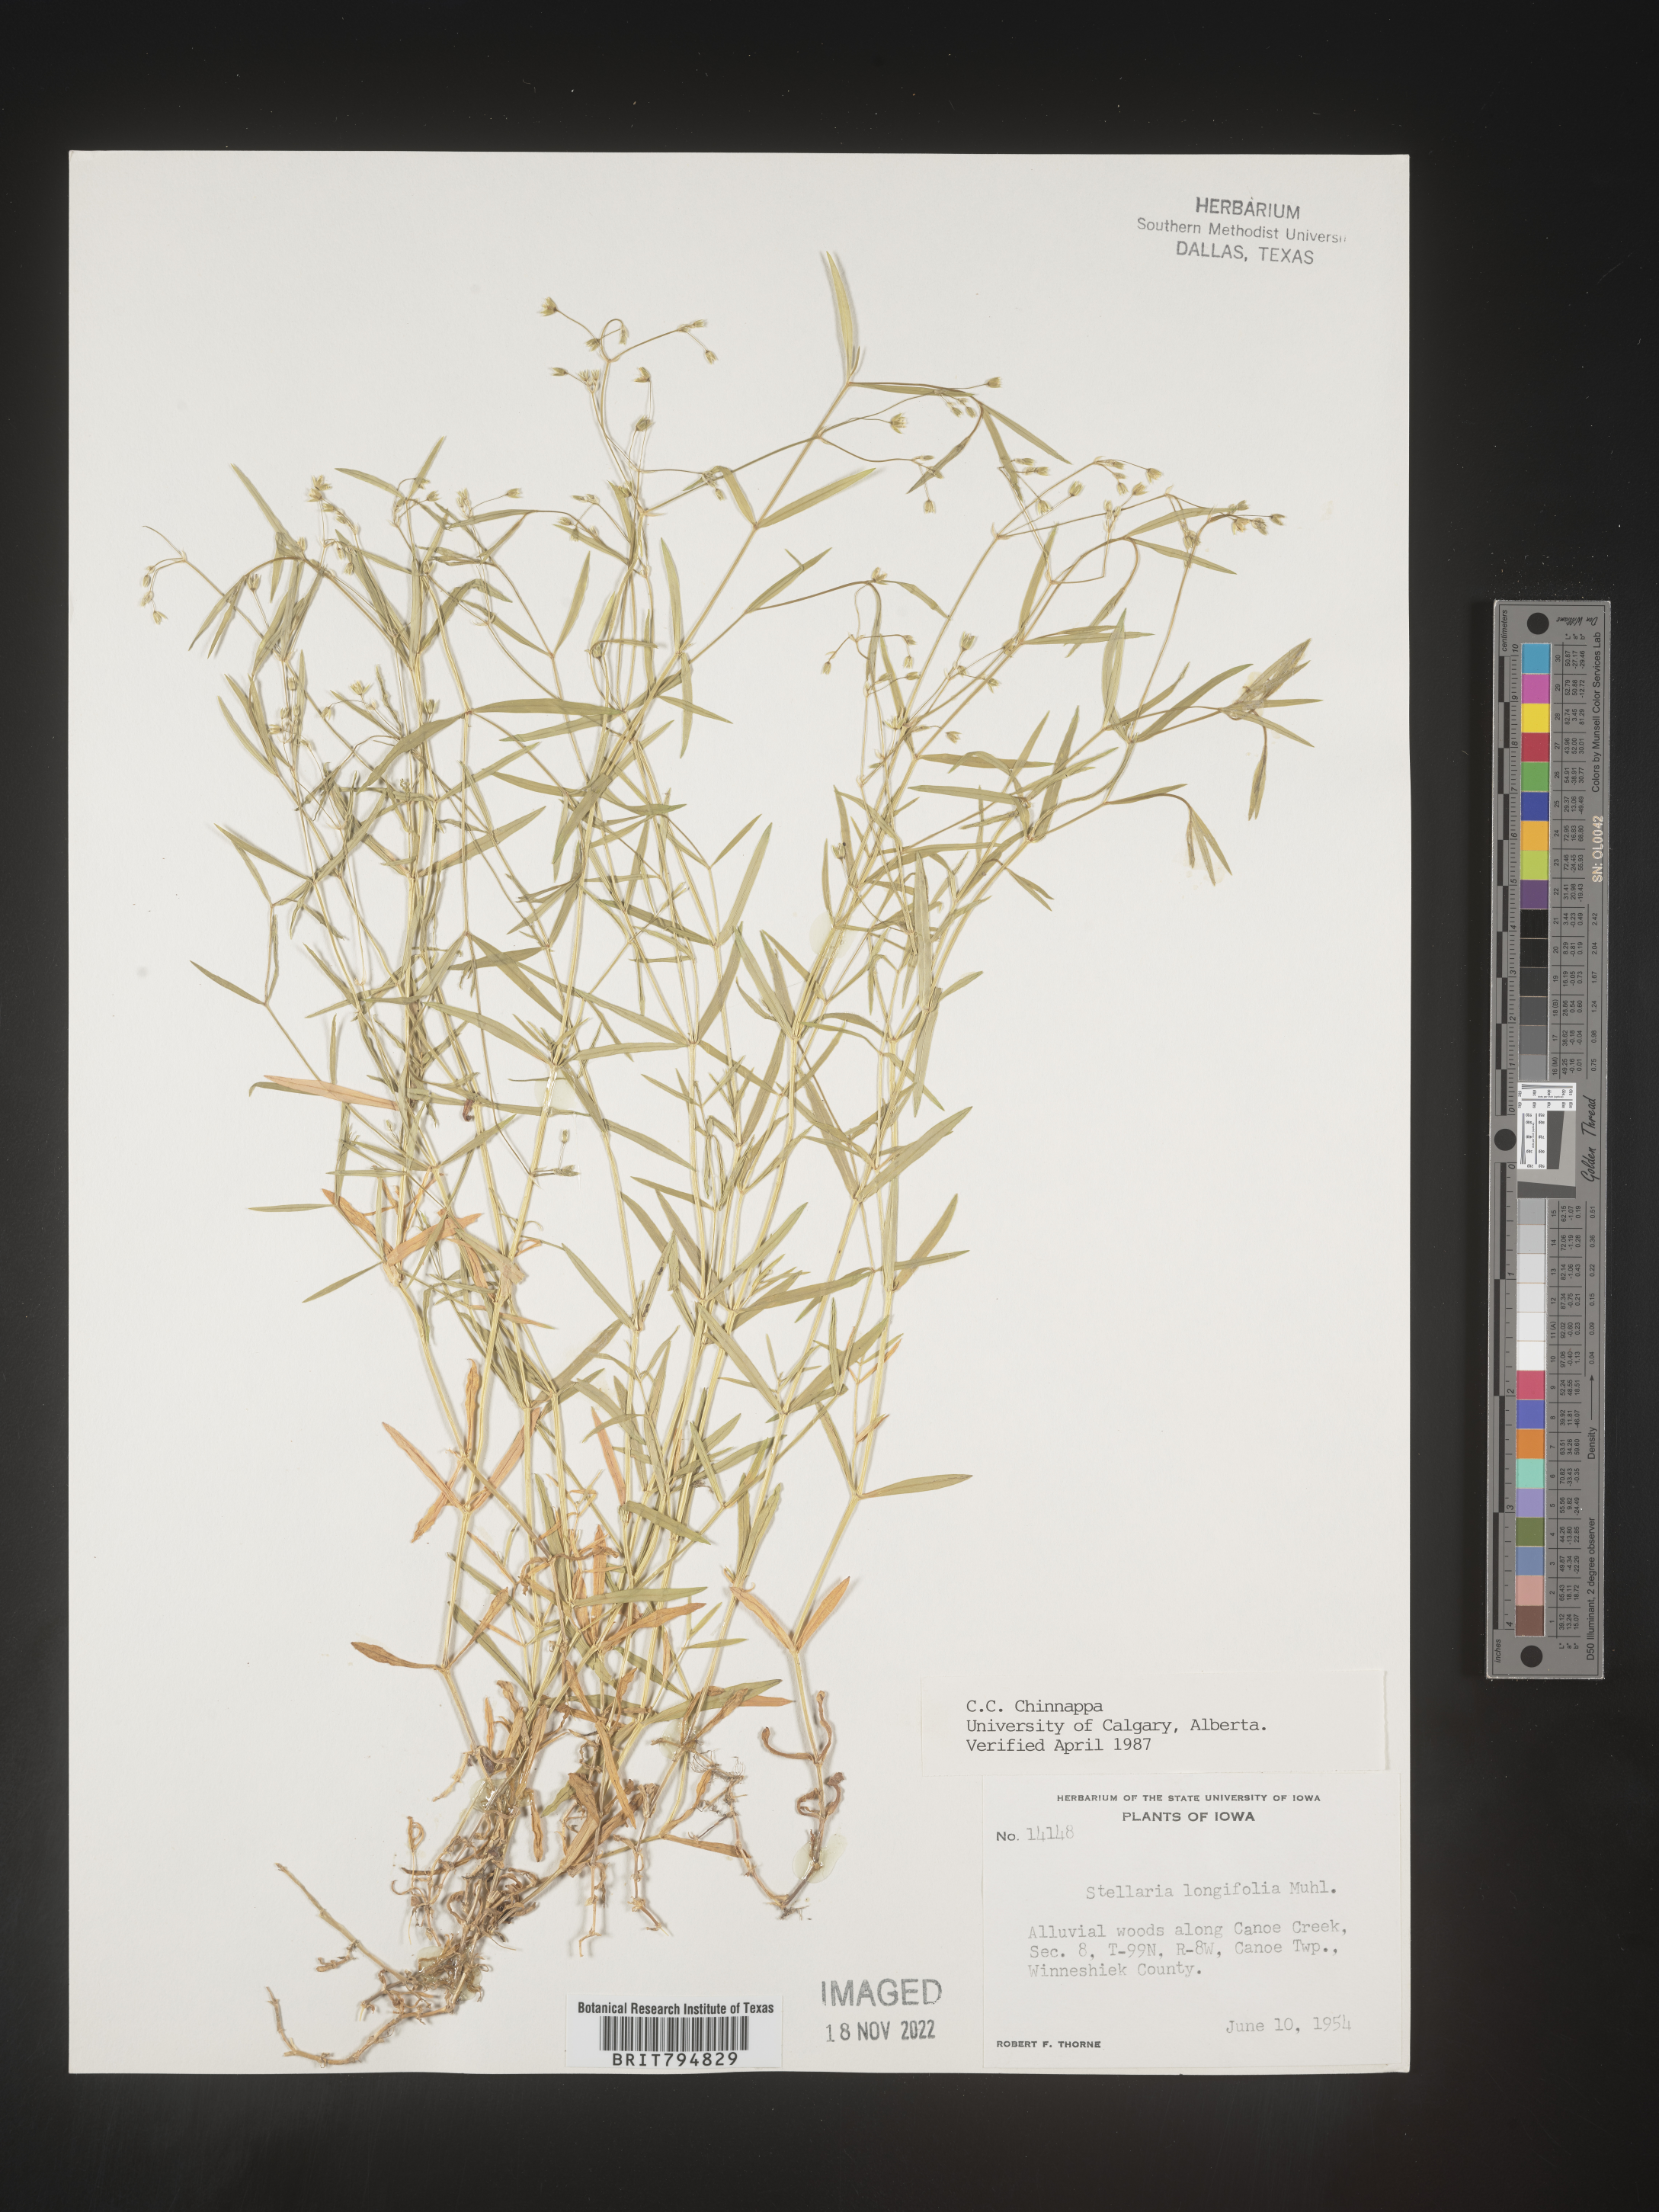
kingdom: Plantae
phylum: Tracheophyta
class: Magnoliopsida
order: Caryophyllales
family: Caryophyllaceae
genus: Stellaria
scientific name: Stellaria longifolia
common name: Long-leaved chickweed
